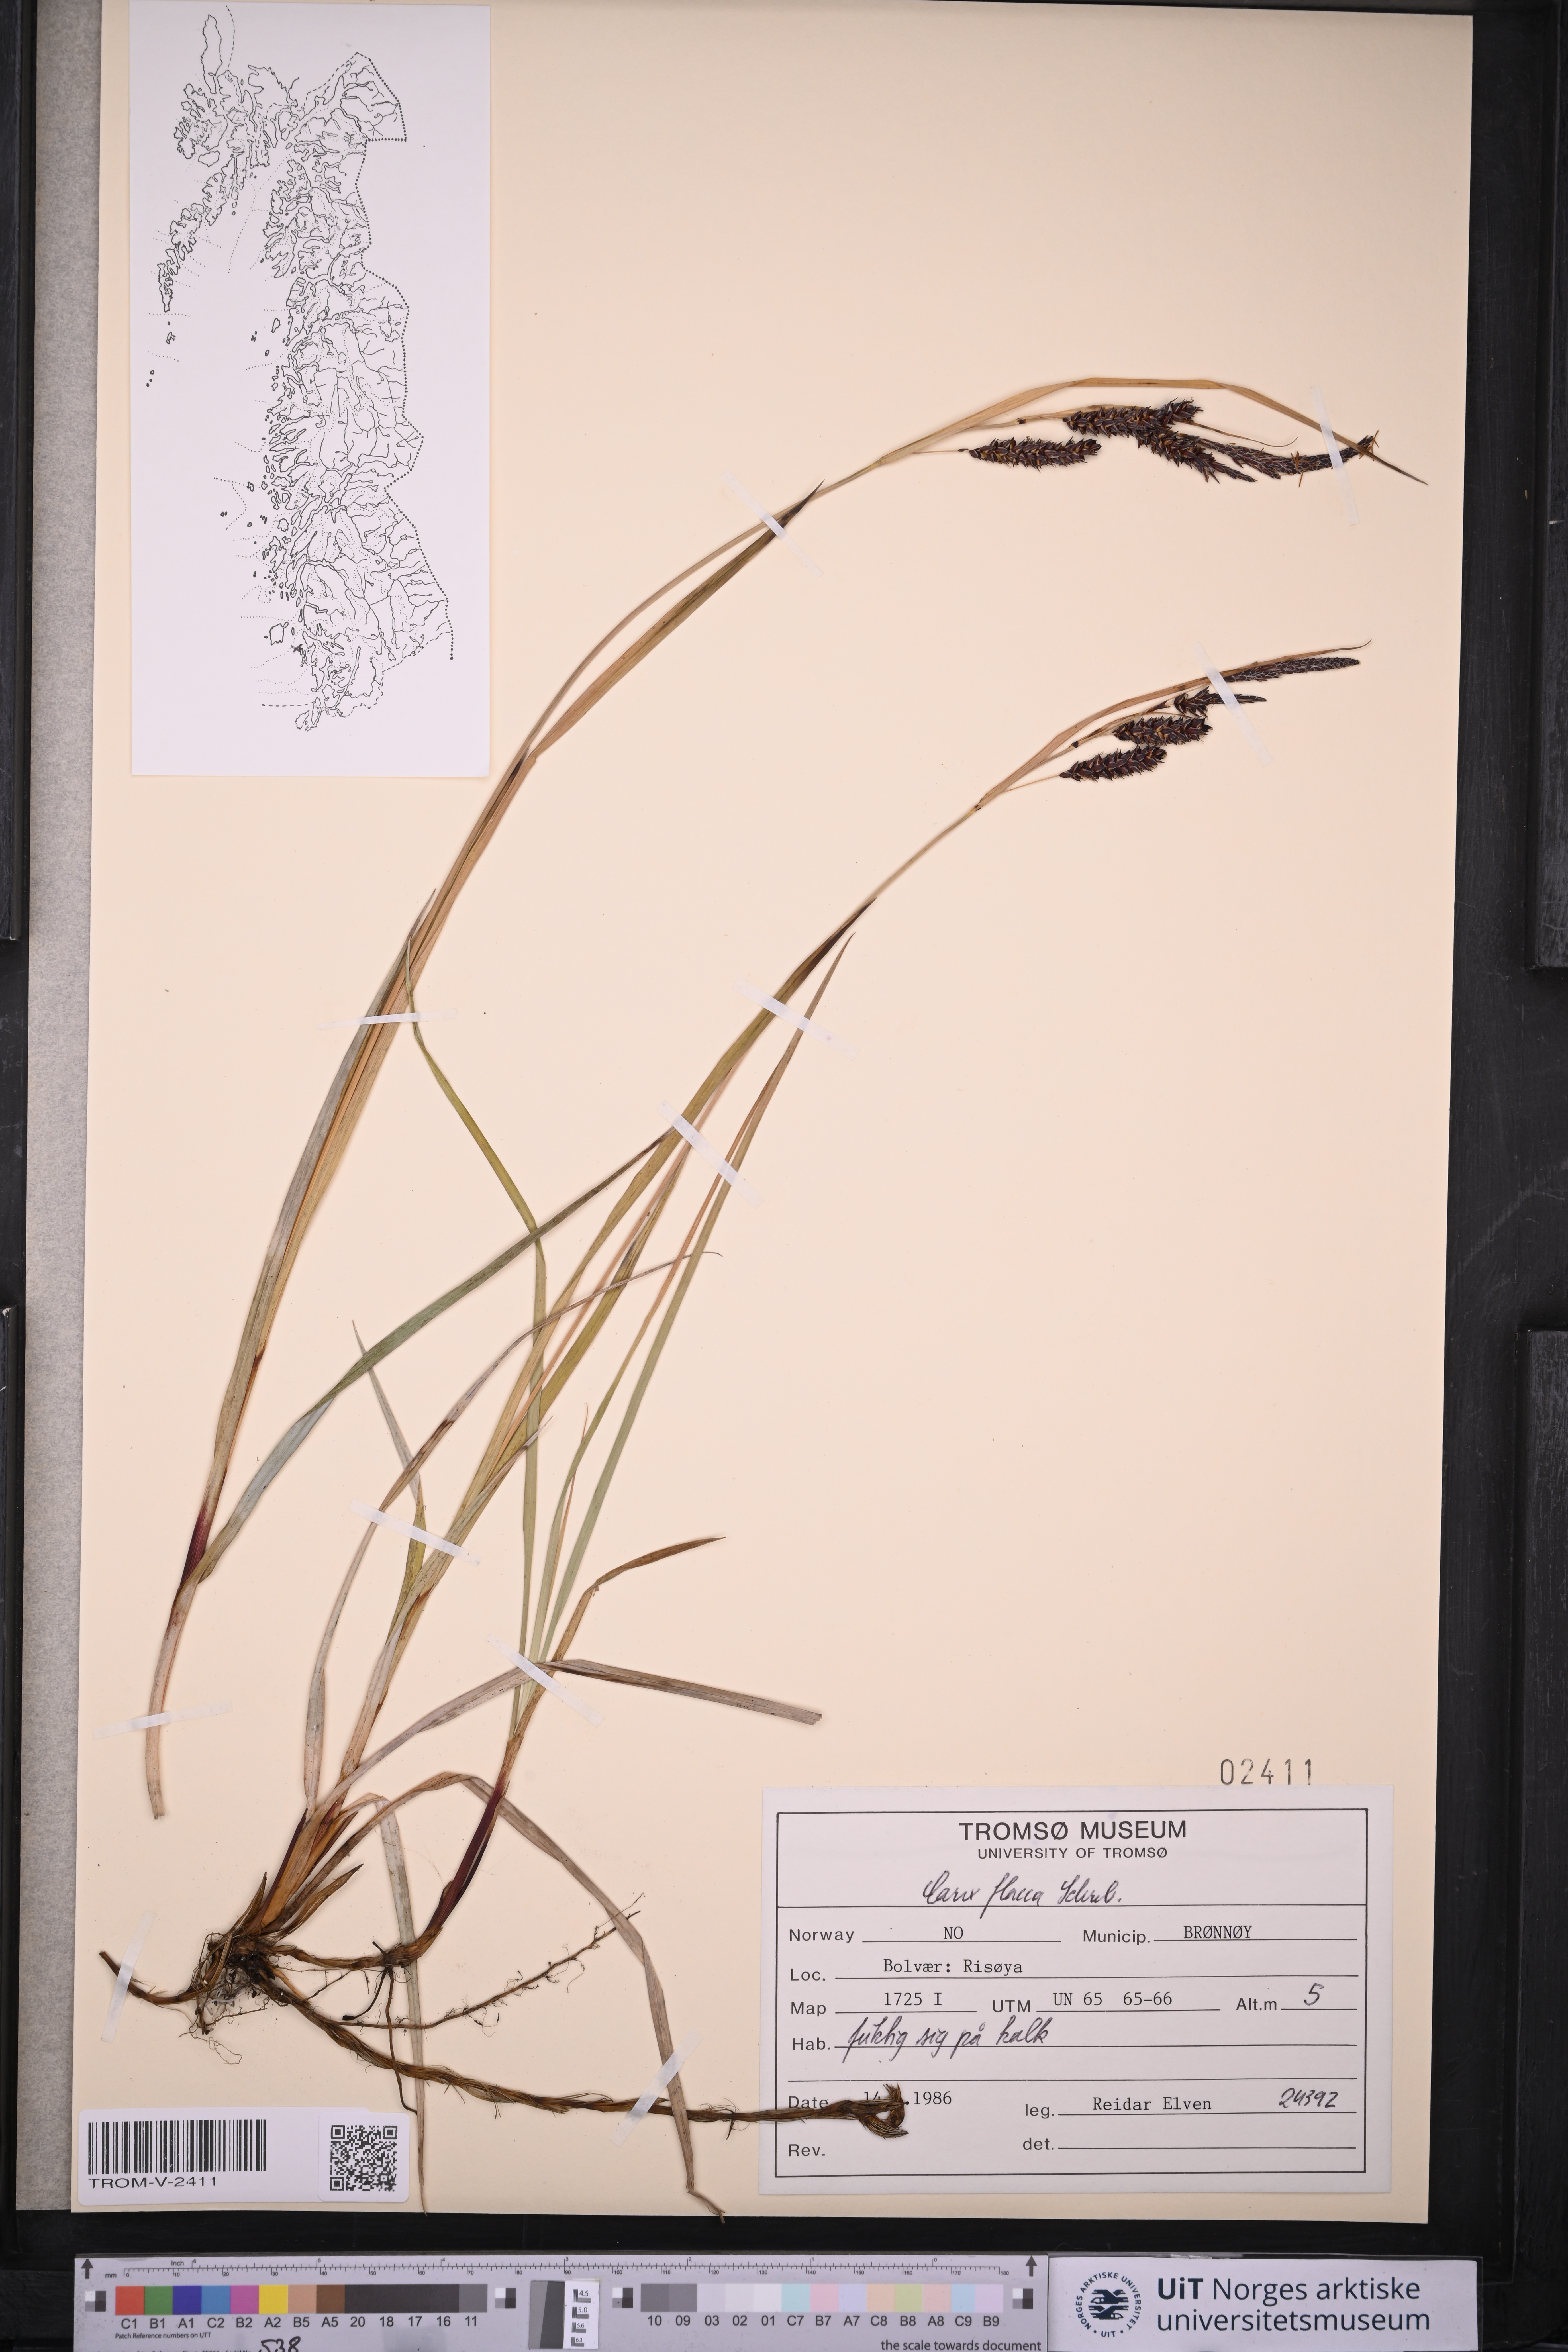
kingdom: Plantae
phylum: Tracheophyta
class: Liliopsida
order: Poales
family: Cyperaceae
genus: Carex
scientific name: Carex flacca
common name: Glaucous sedge
